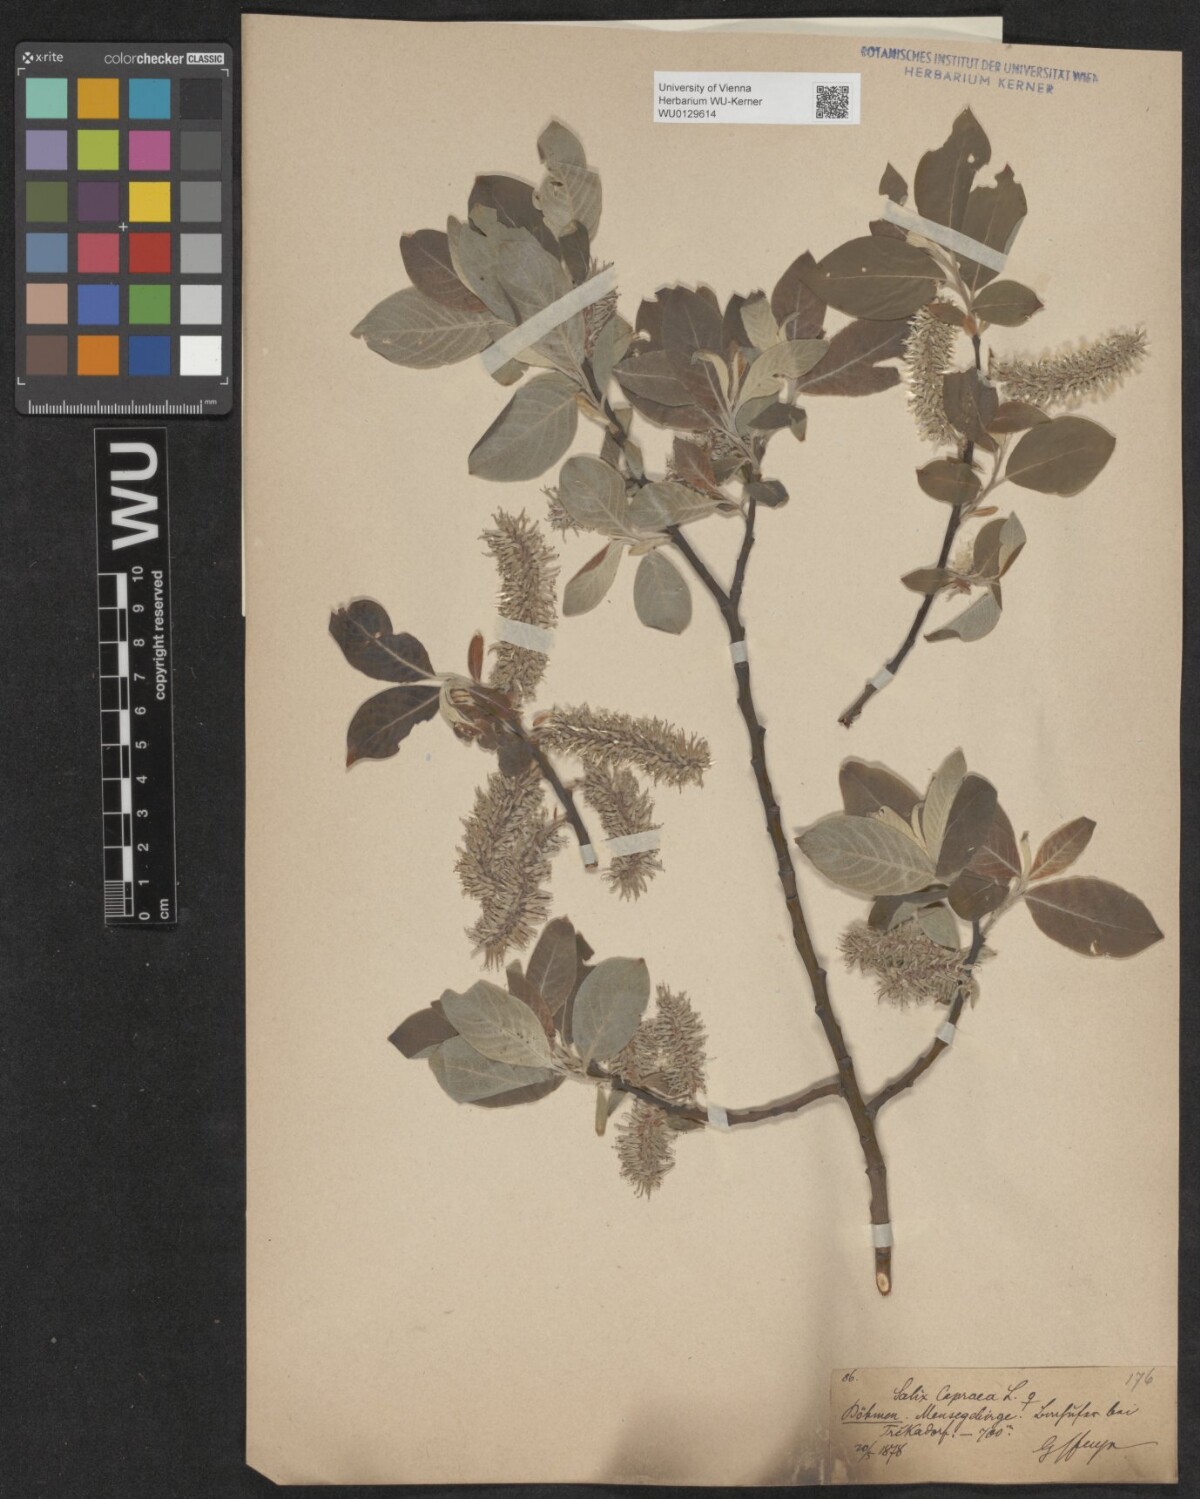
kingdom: Plantae
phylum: Tracheophyta
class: Magnoliopsida
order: Malpighiales
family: Salicaceae
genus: Salix
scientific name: Salix caprea
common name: Goat willow
